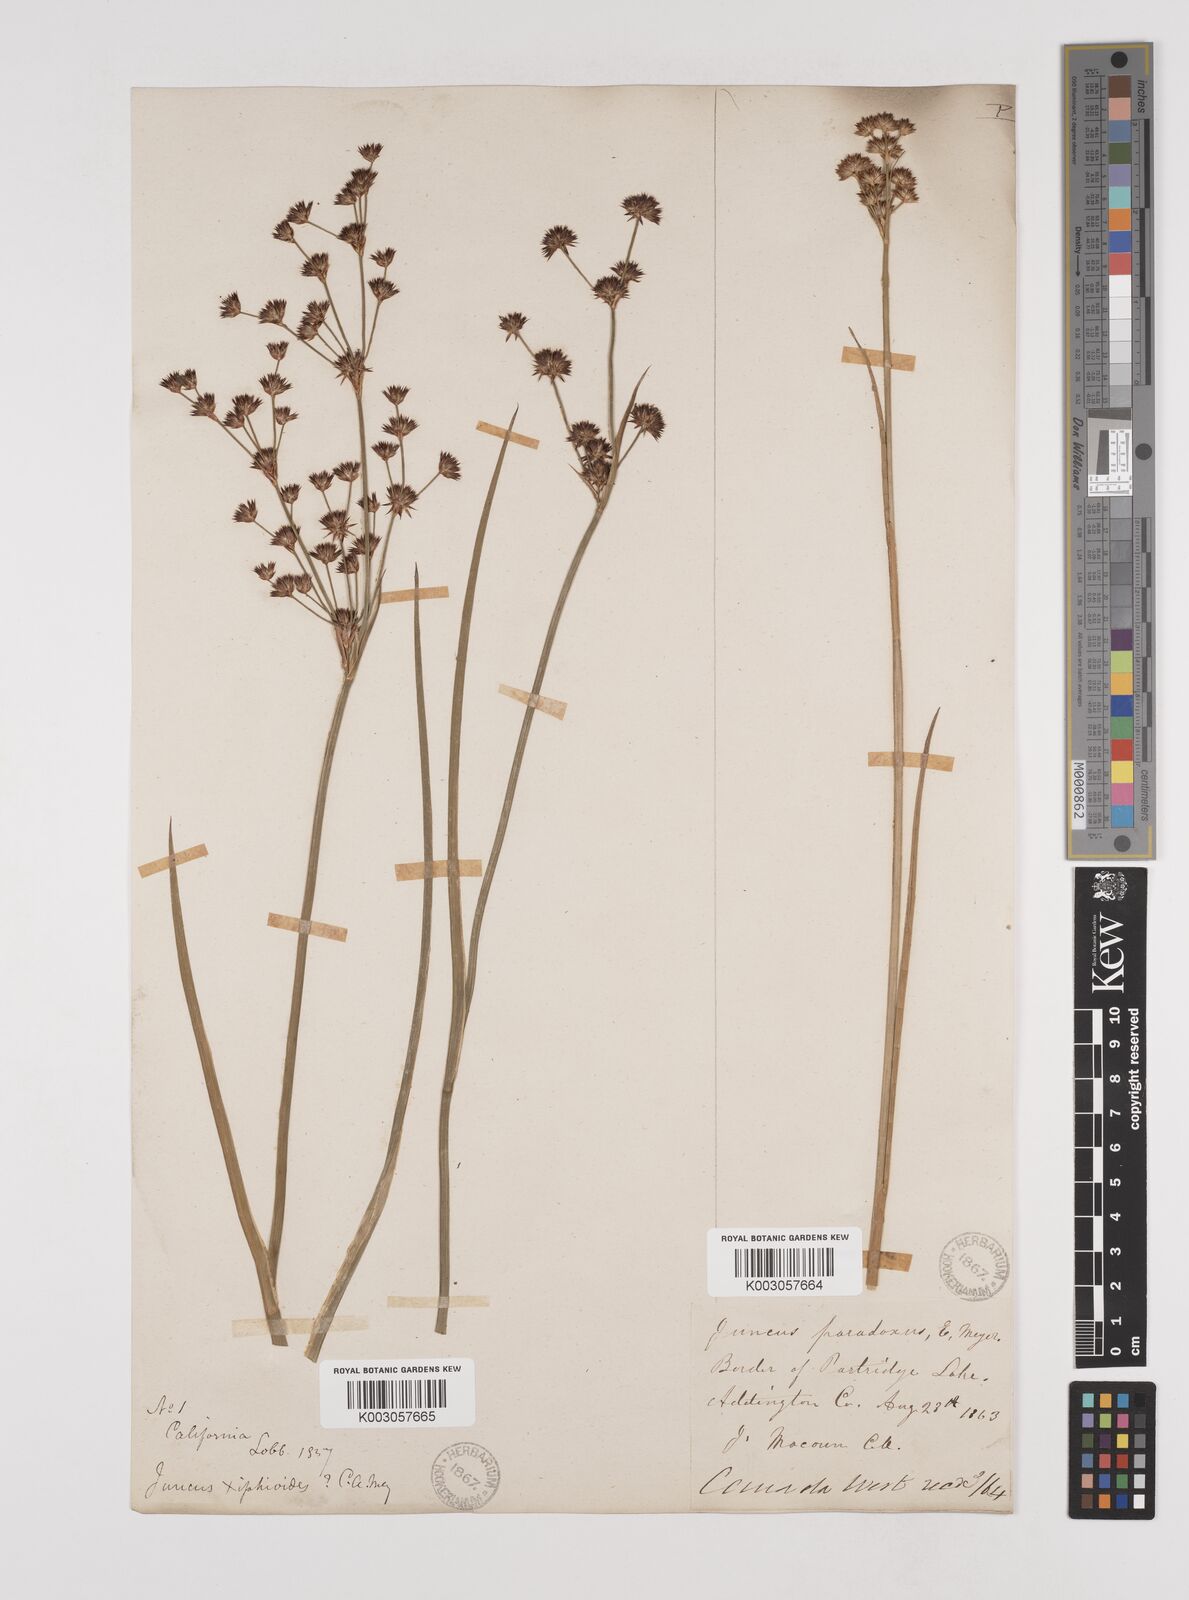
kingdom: Plantae
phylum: Tracheophyta
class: Liliopsida
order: Poales
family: Juncaceae
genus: Juncus
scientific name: Juncus dubius
